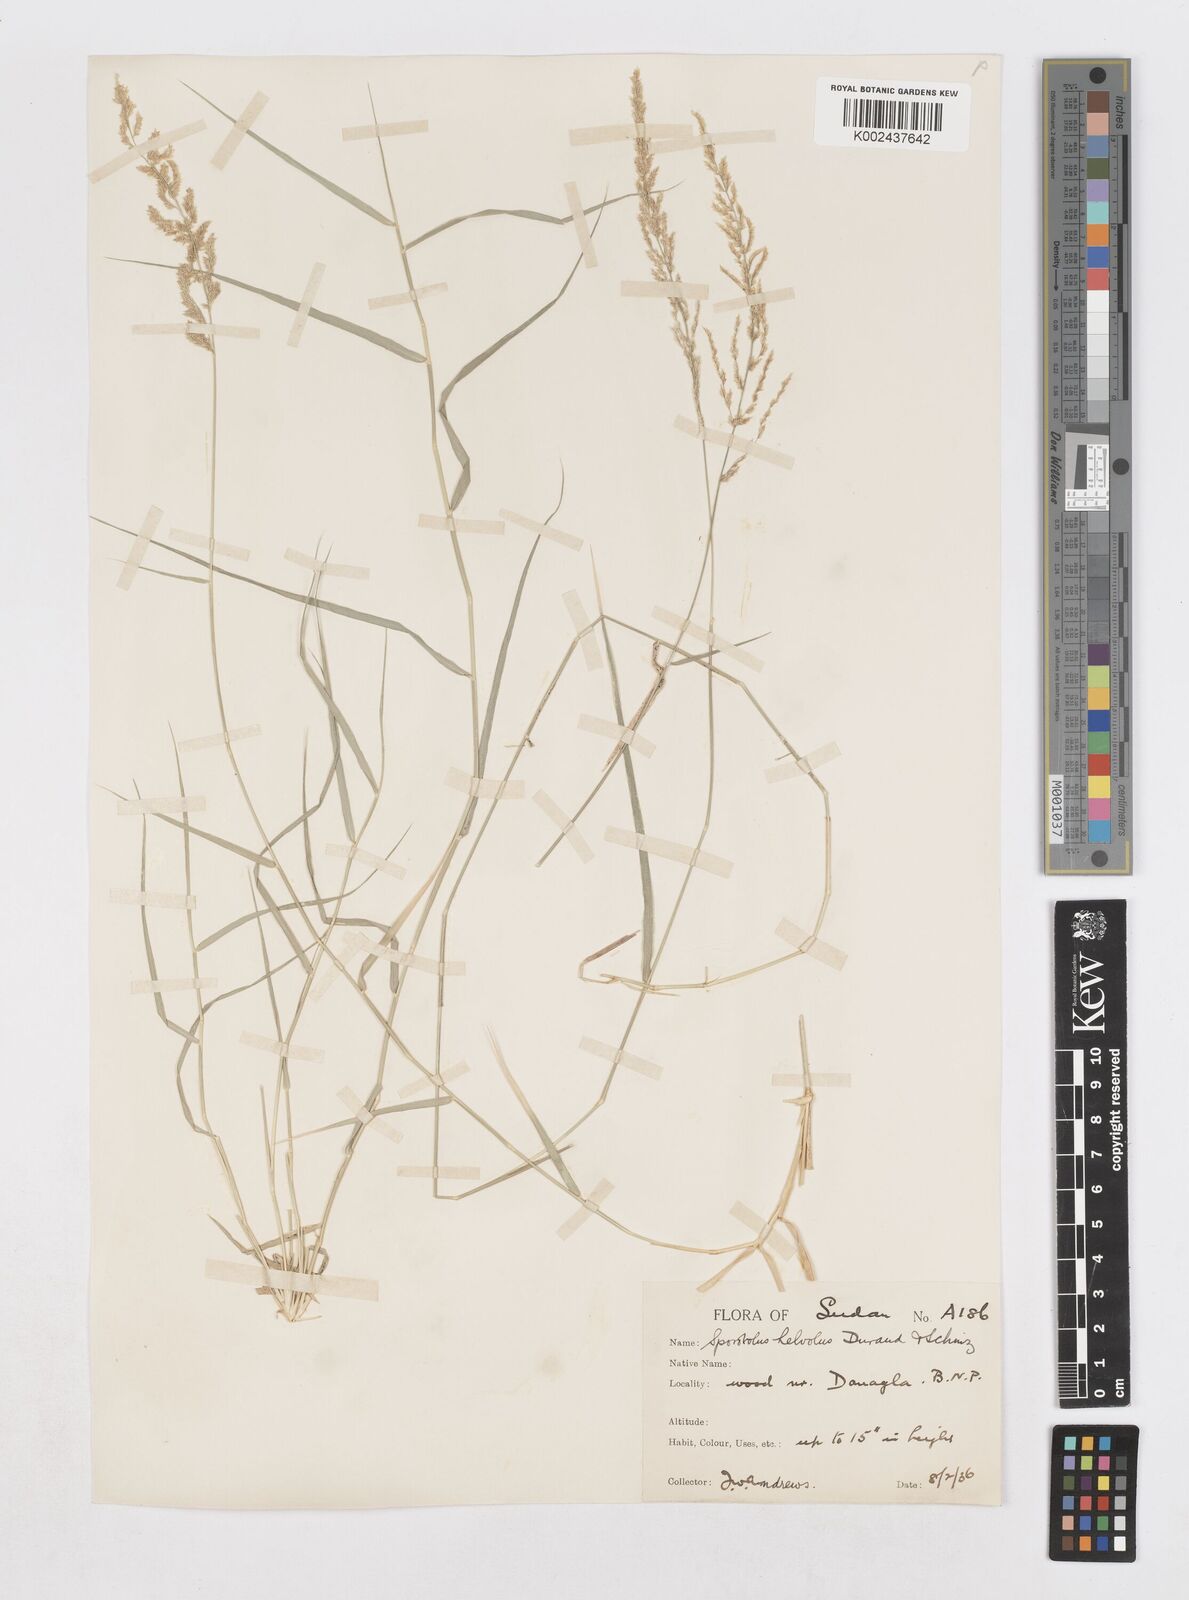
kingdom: Plantae
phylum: Tracheophyta
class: Liliopsida
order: Poales
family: Poaceae
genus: Sporobolus
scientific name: Sporobolus helvolus
